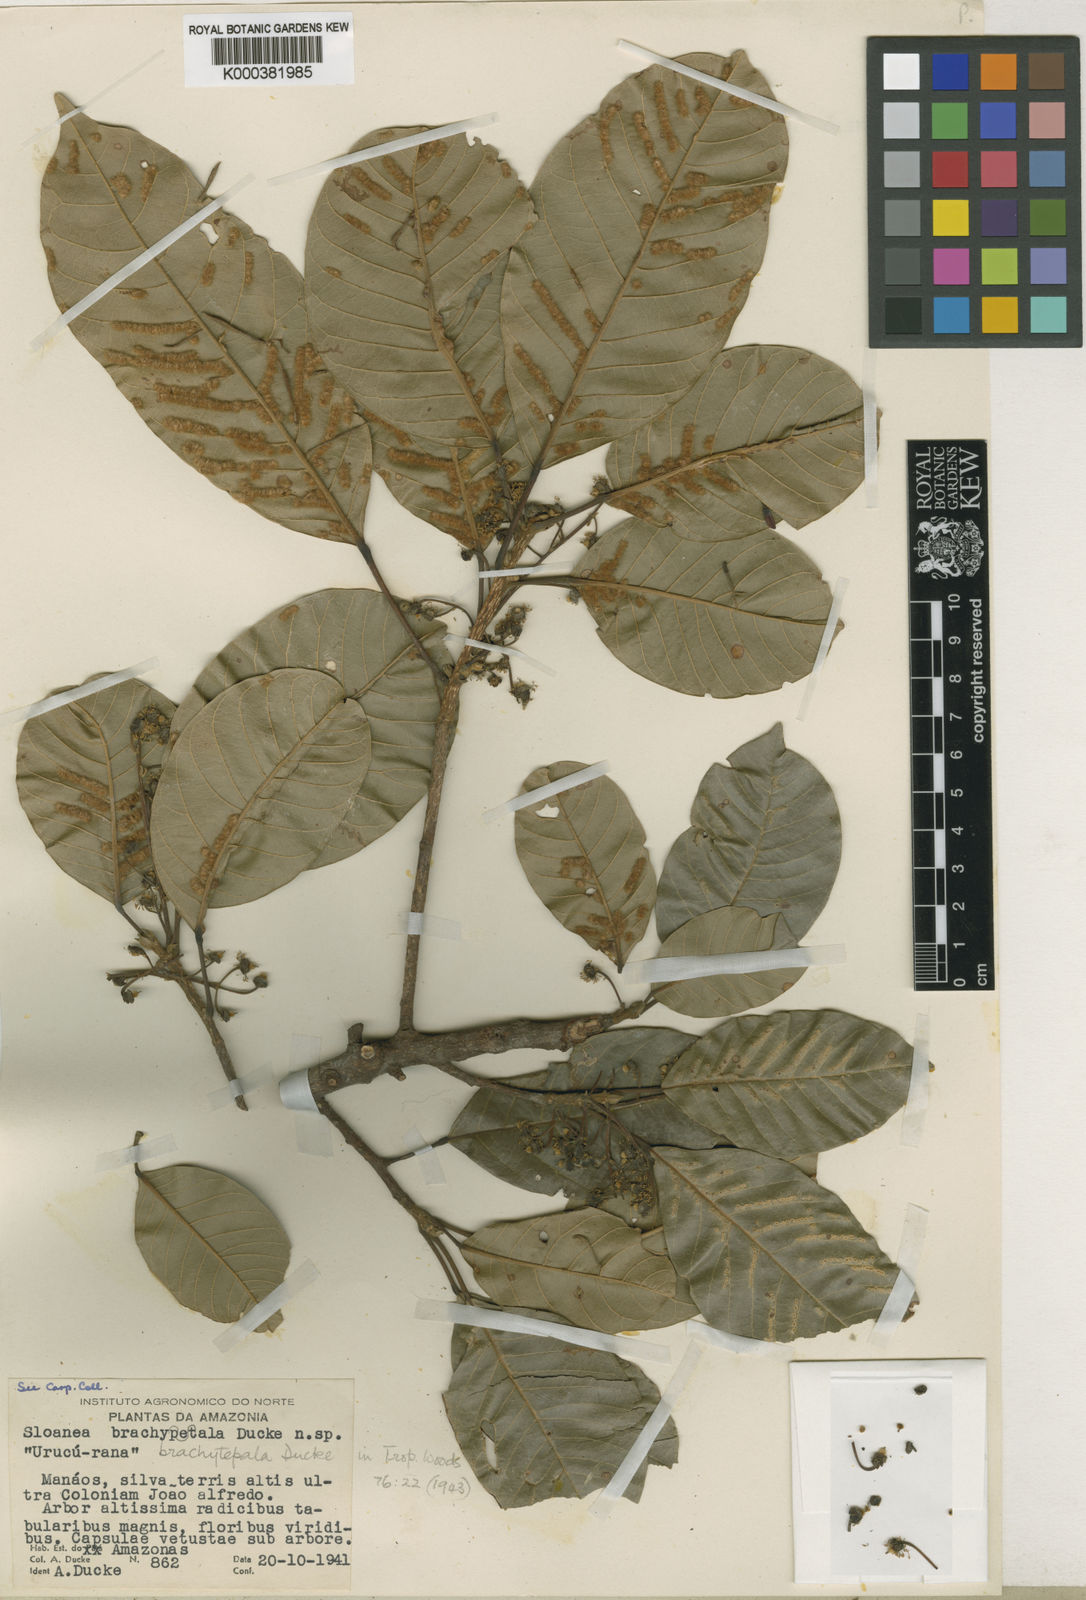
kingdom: Plantae
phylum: Tracheophyta
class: Magnoliopsida
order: Oxalidales
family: Elaeocarpaceae
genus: Sloanea
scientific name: Sloanea laurifolia
